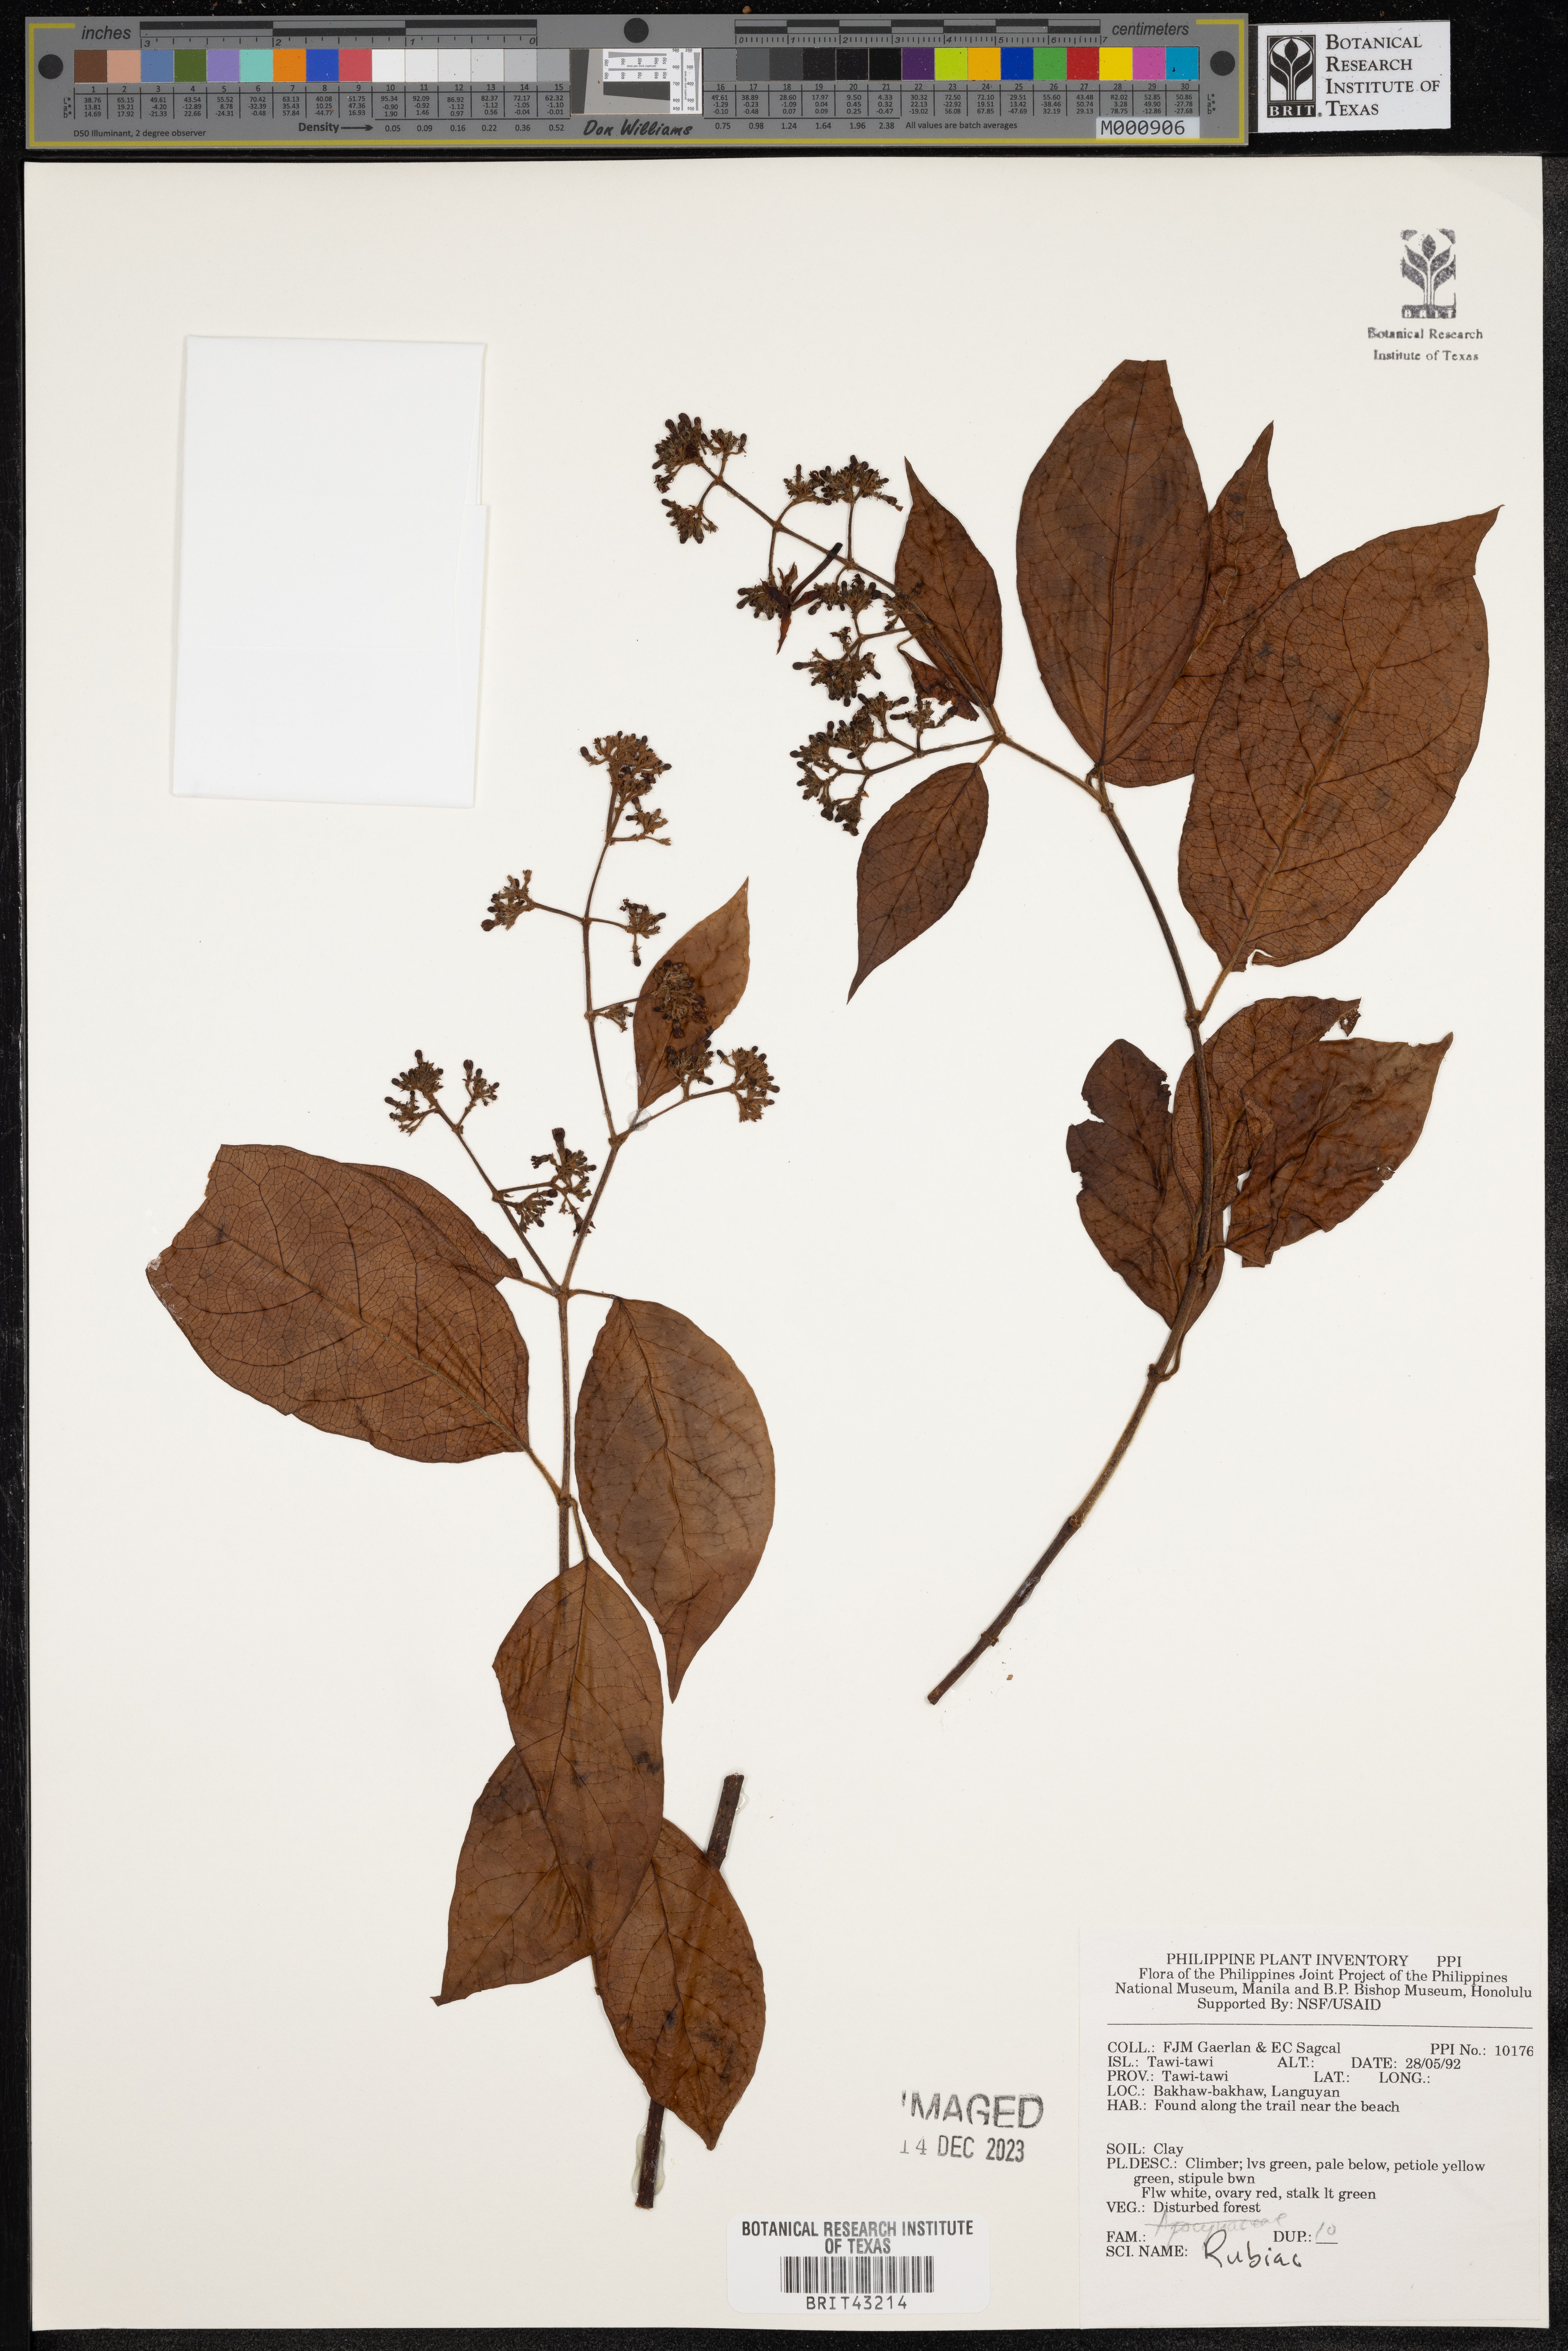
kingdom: Plantae
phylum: Tracheophyta
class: Magnoliopsida
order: Gentianales
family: Rubiaceae
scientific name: Rubiaceae
